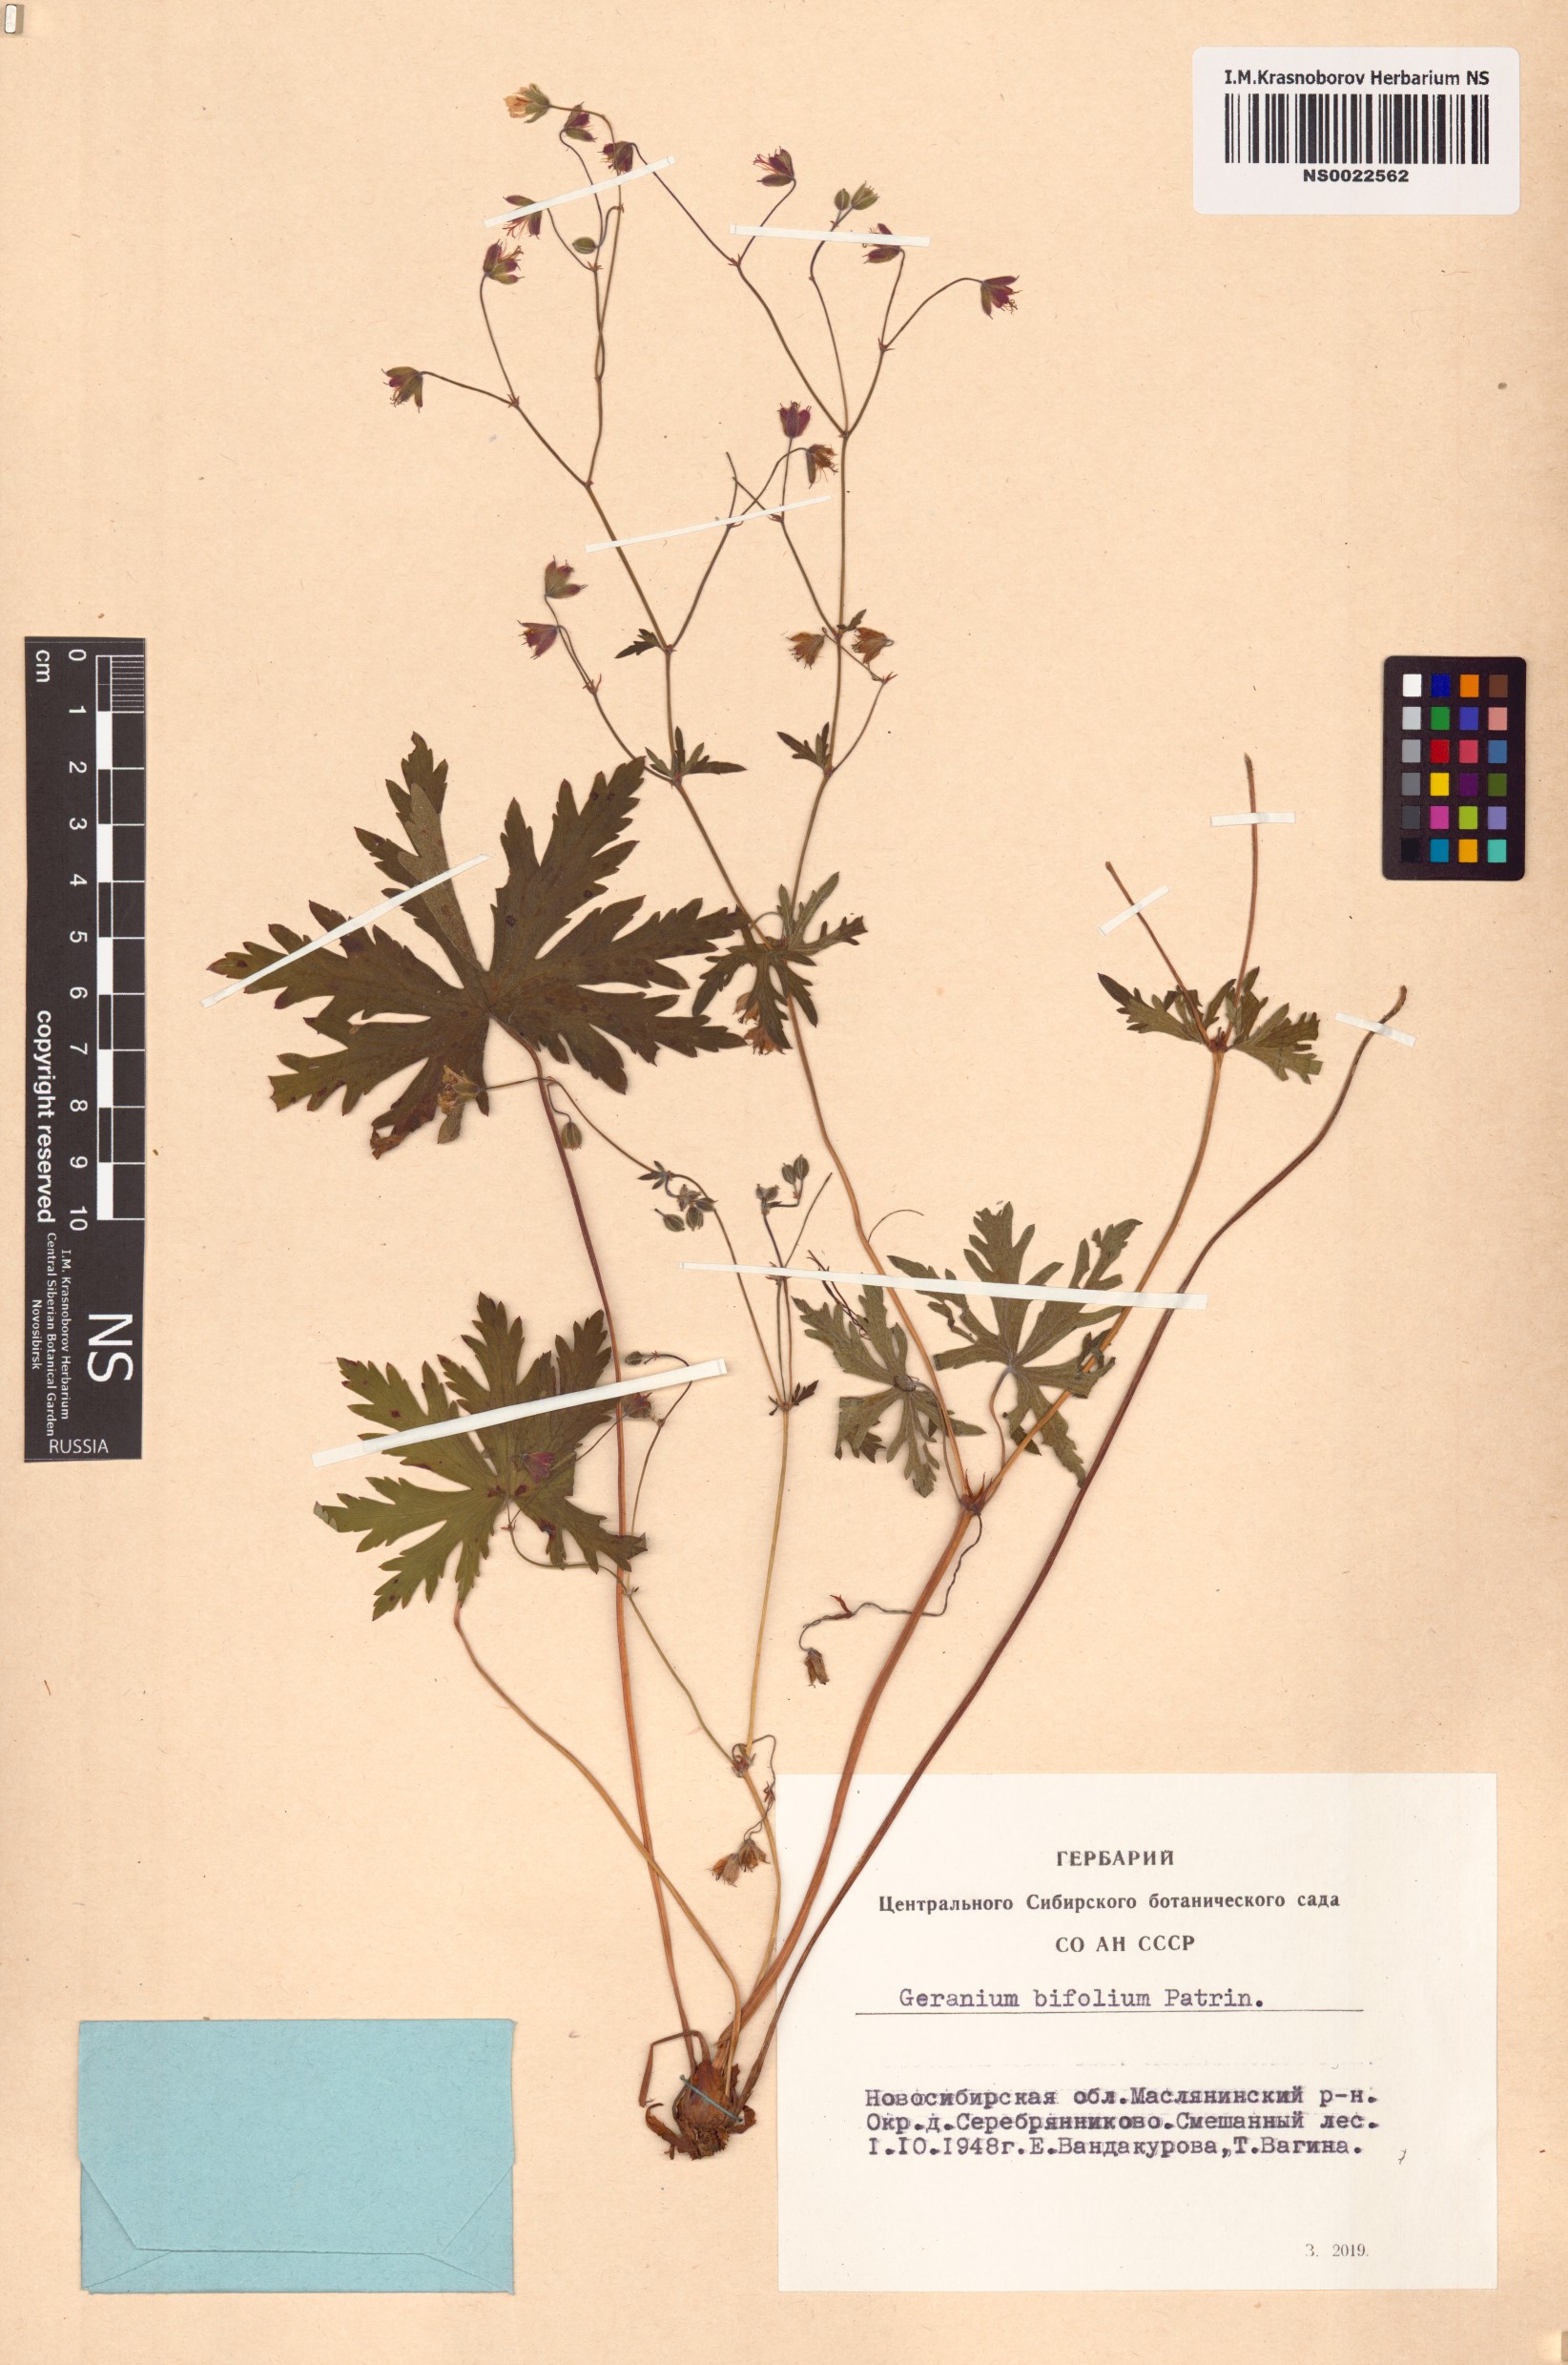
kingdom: Plantae
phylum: Tracheophyta
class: Magnoliopsida
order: Geraniales
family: Geraniaceae
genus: Geranium
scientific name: Geranium pseudosibiricum
